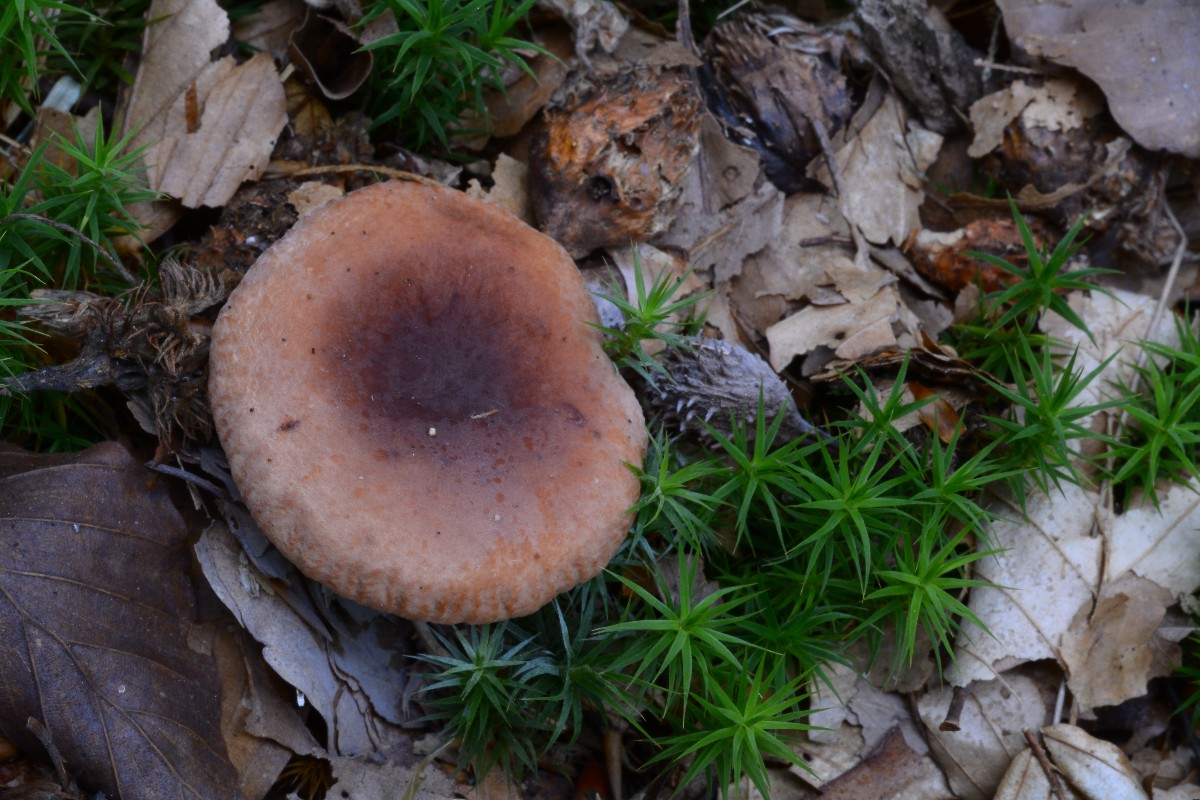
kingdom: Fungi
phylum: Basidiomycota
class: Agaricomycetes
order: Russulales
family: Russulaceae
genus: Lactarius
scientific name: Lactarius camphoratus
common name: kamfer-mælkehat
